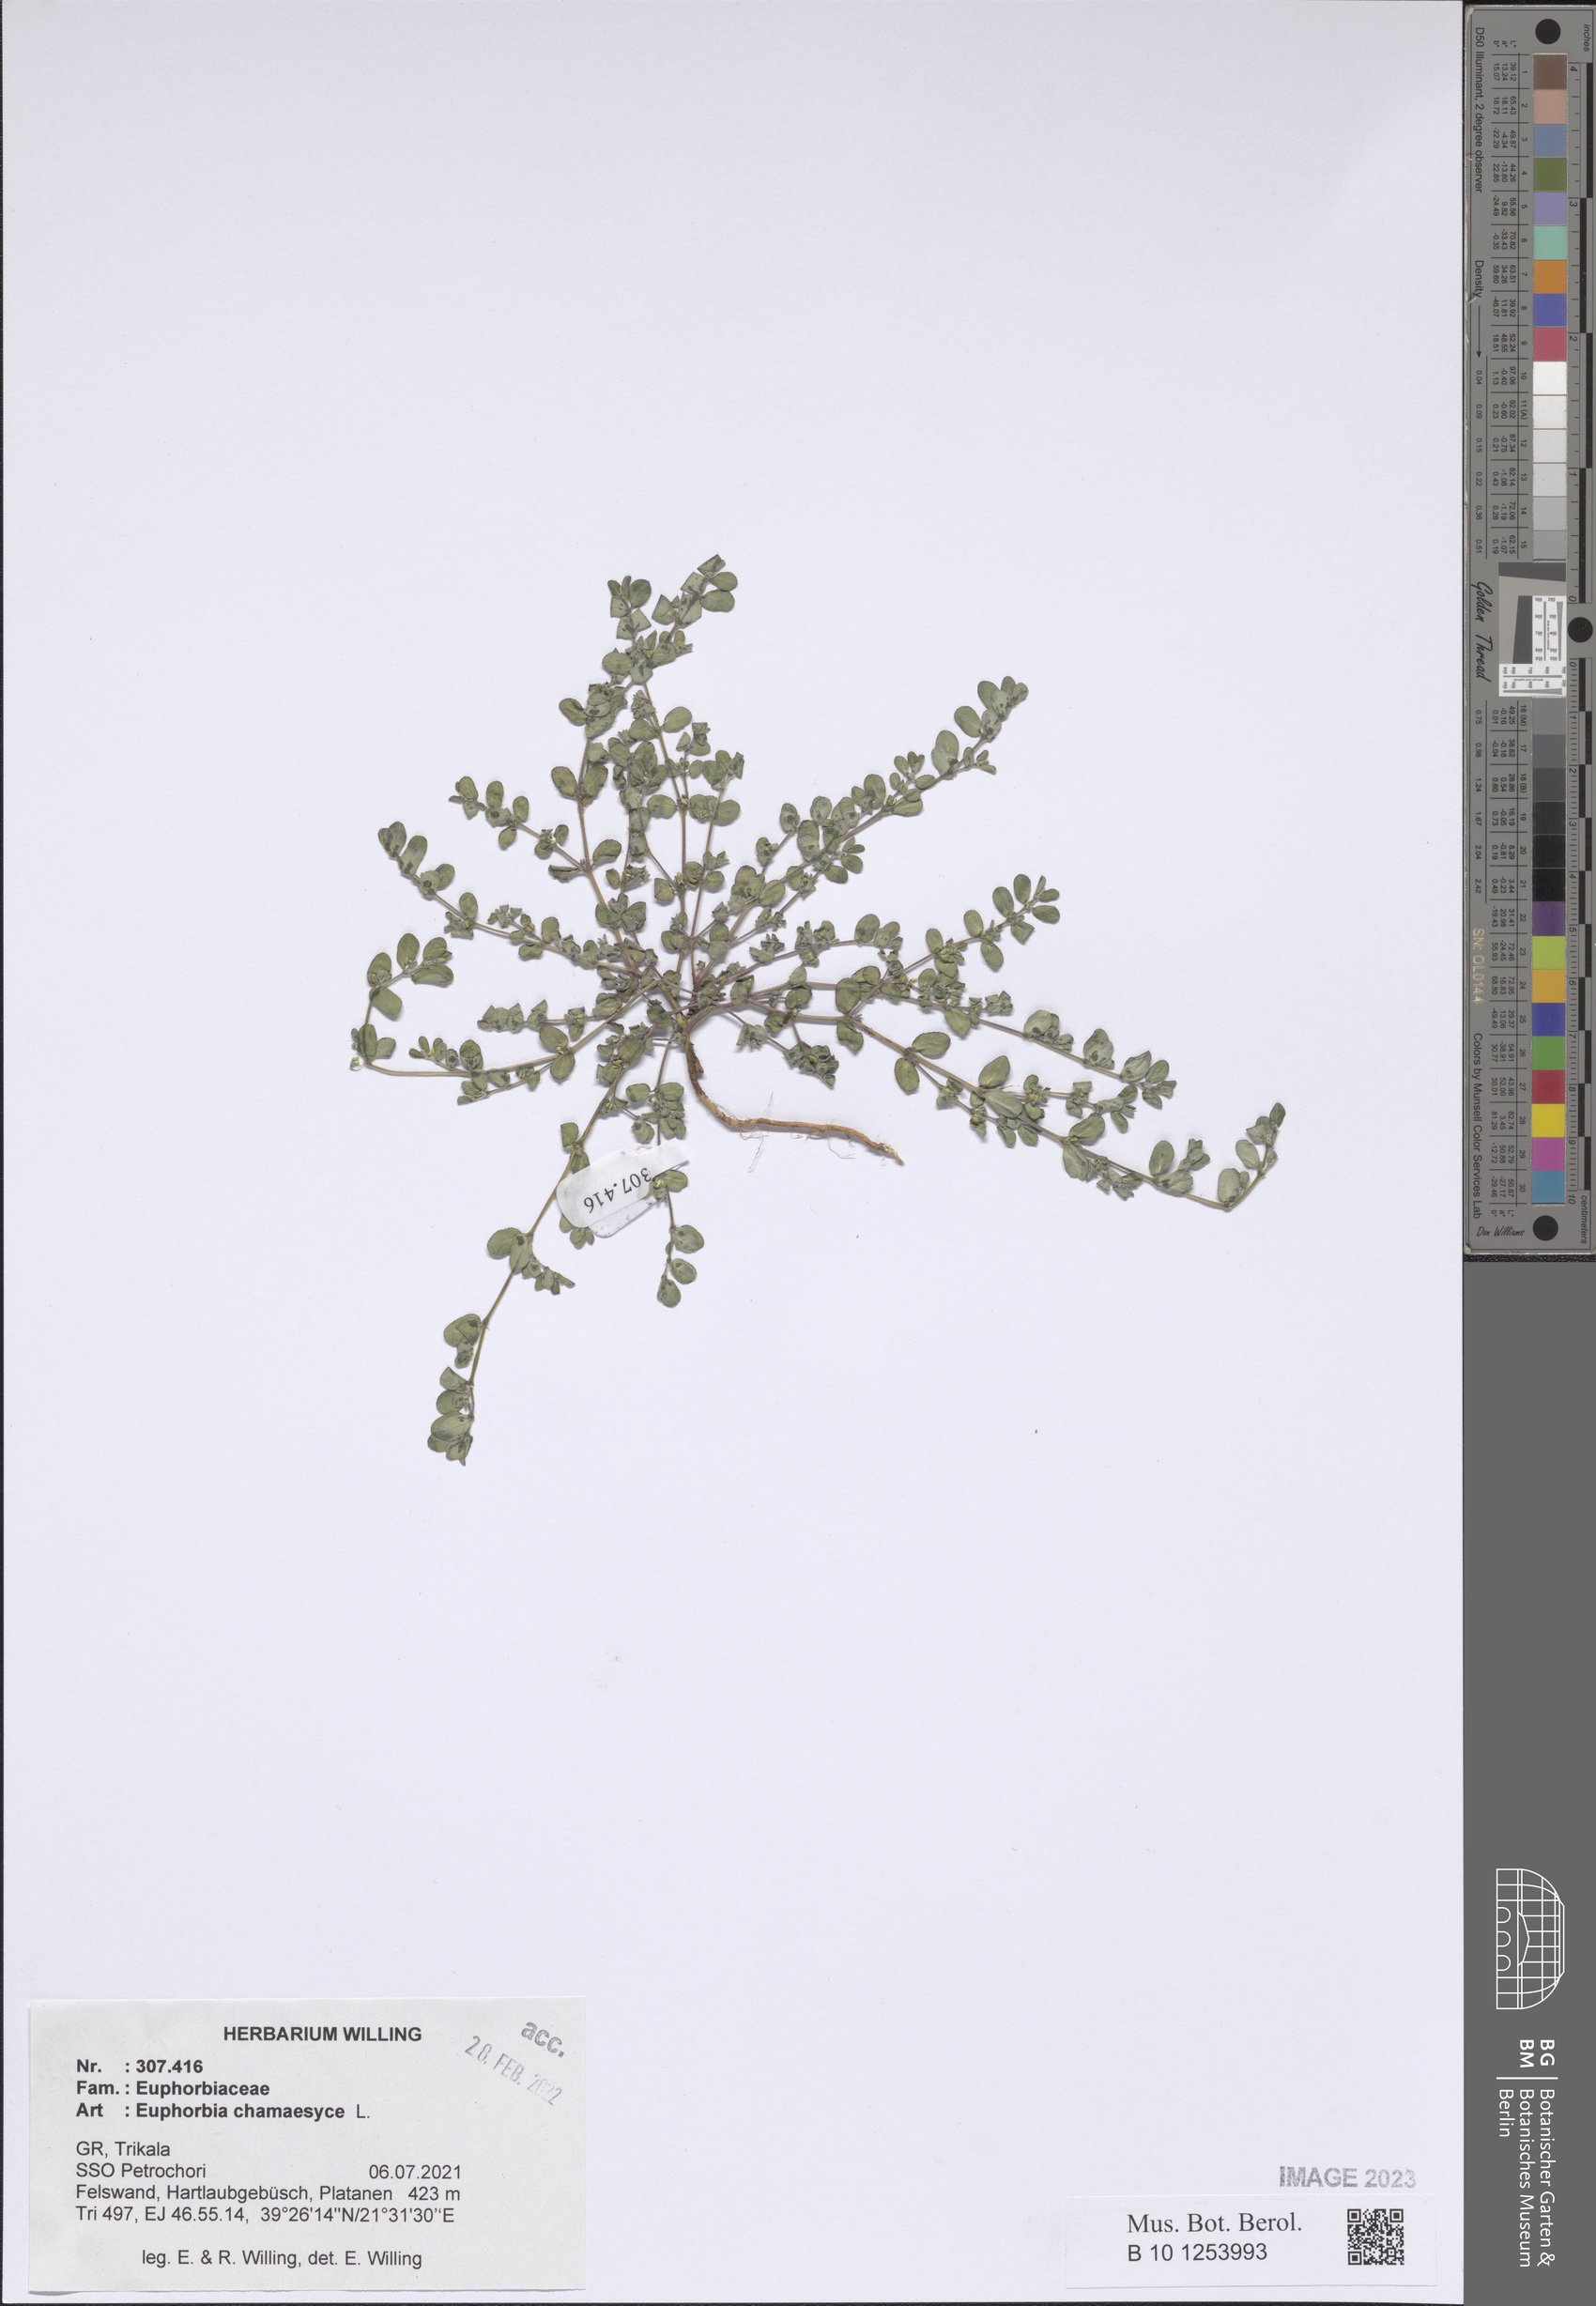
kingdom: Plantae
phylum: Tracheophyta
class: Magnoliopsida
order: Malpighiales
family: Euphorbiaceae
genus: Euphorbia
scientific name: Euphorbia chamaesyce
